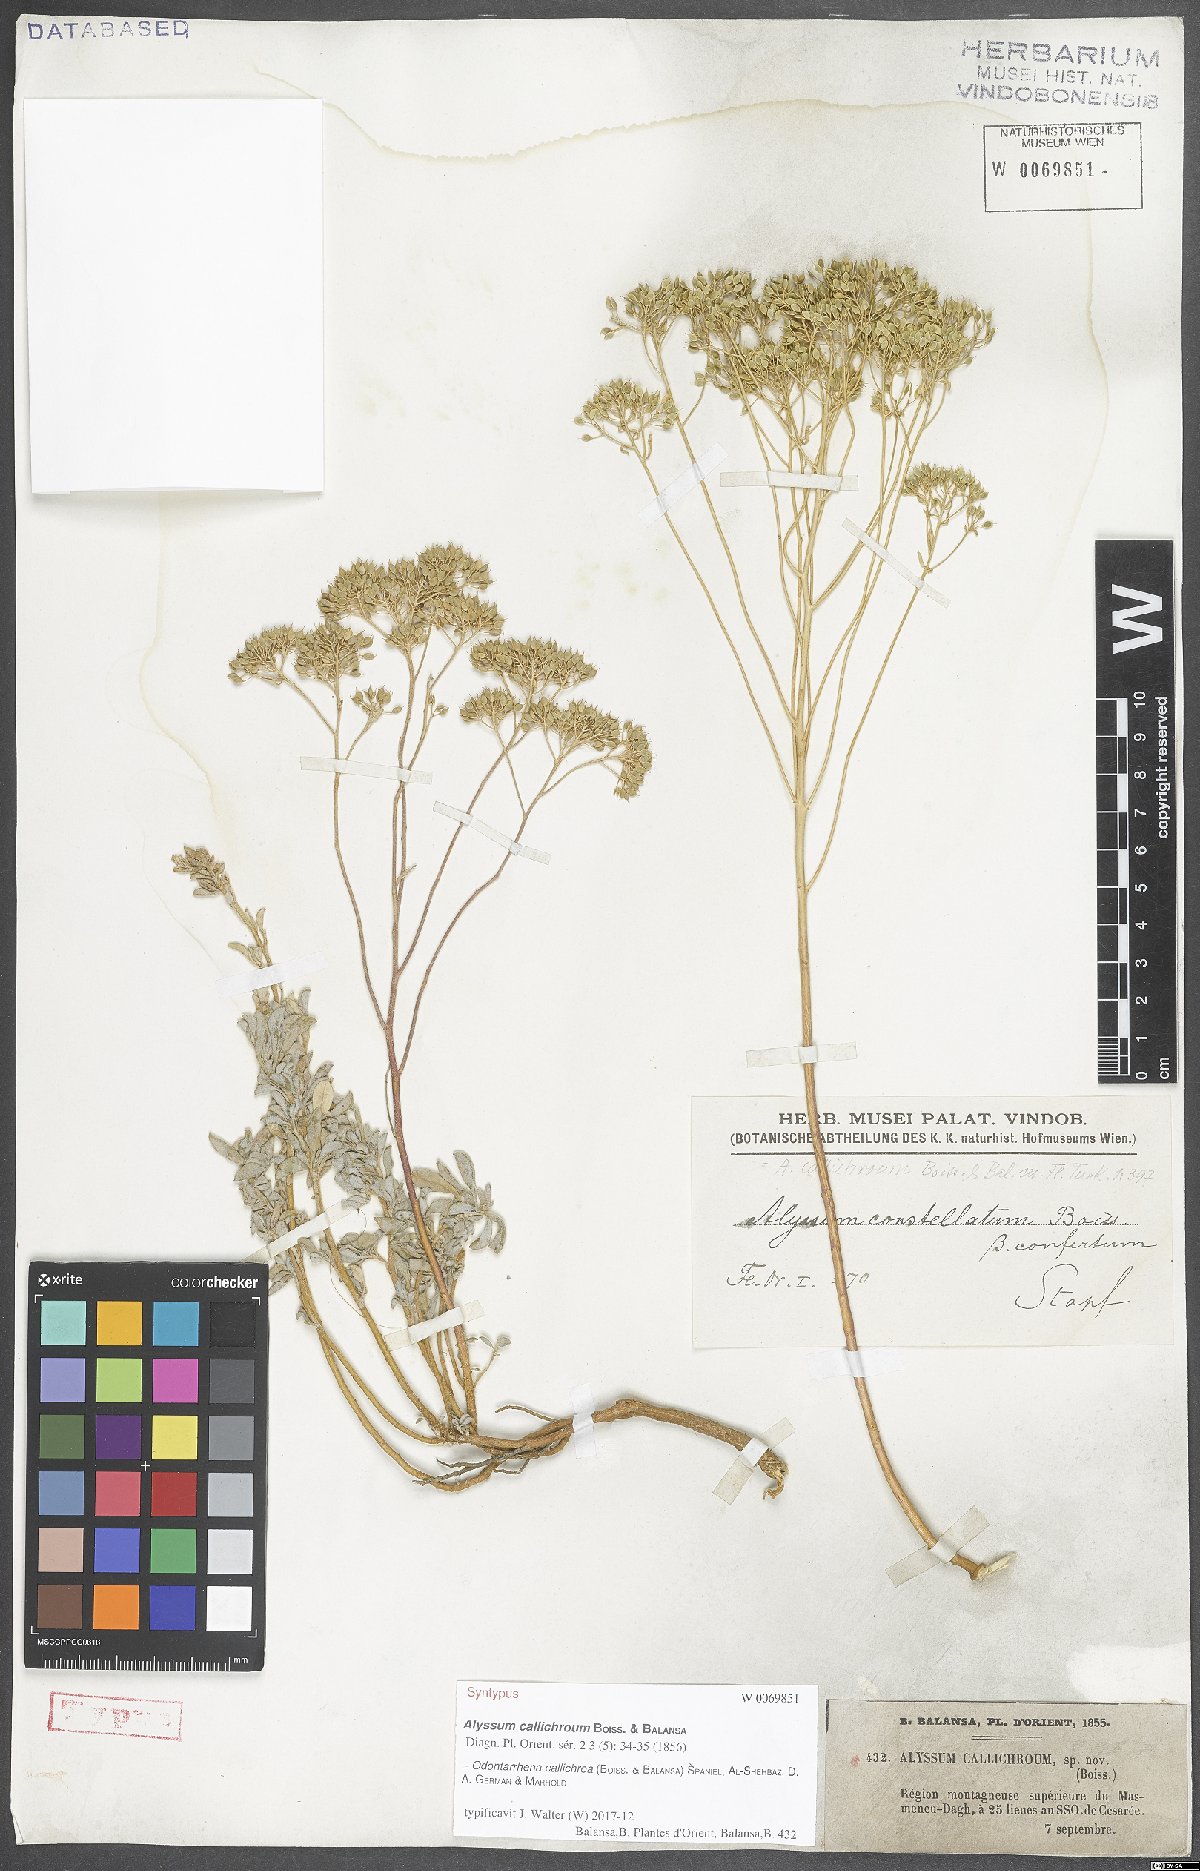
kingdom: Plantae
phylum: Tracheophyta
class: Magnoliopsida
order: Brassicales
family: Brassicaceae
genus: Odontarrhena
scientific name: Odontarrhena callichroa
